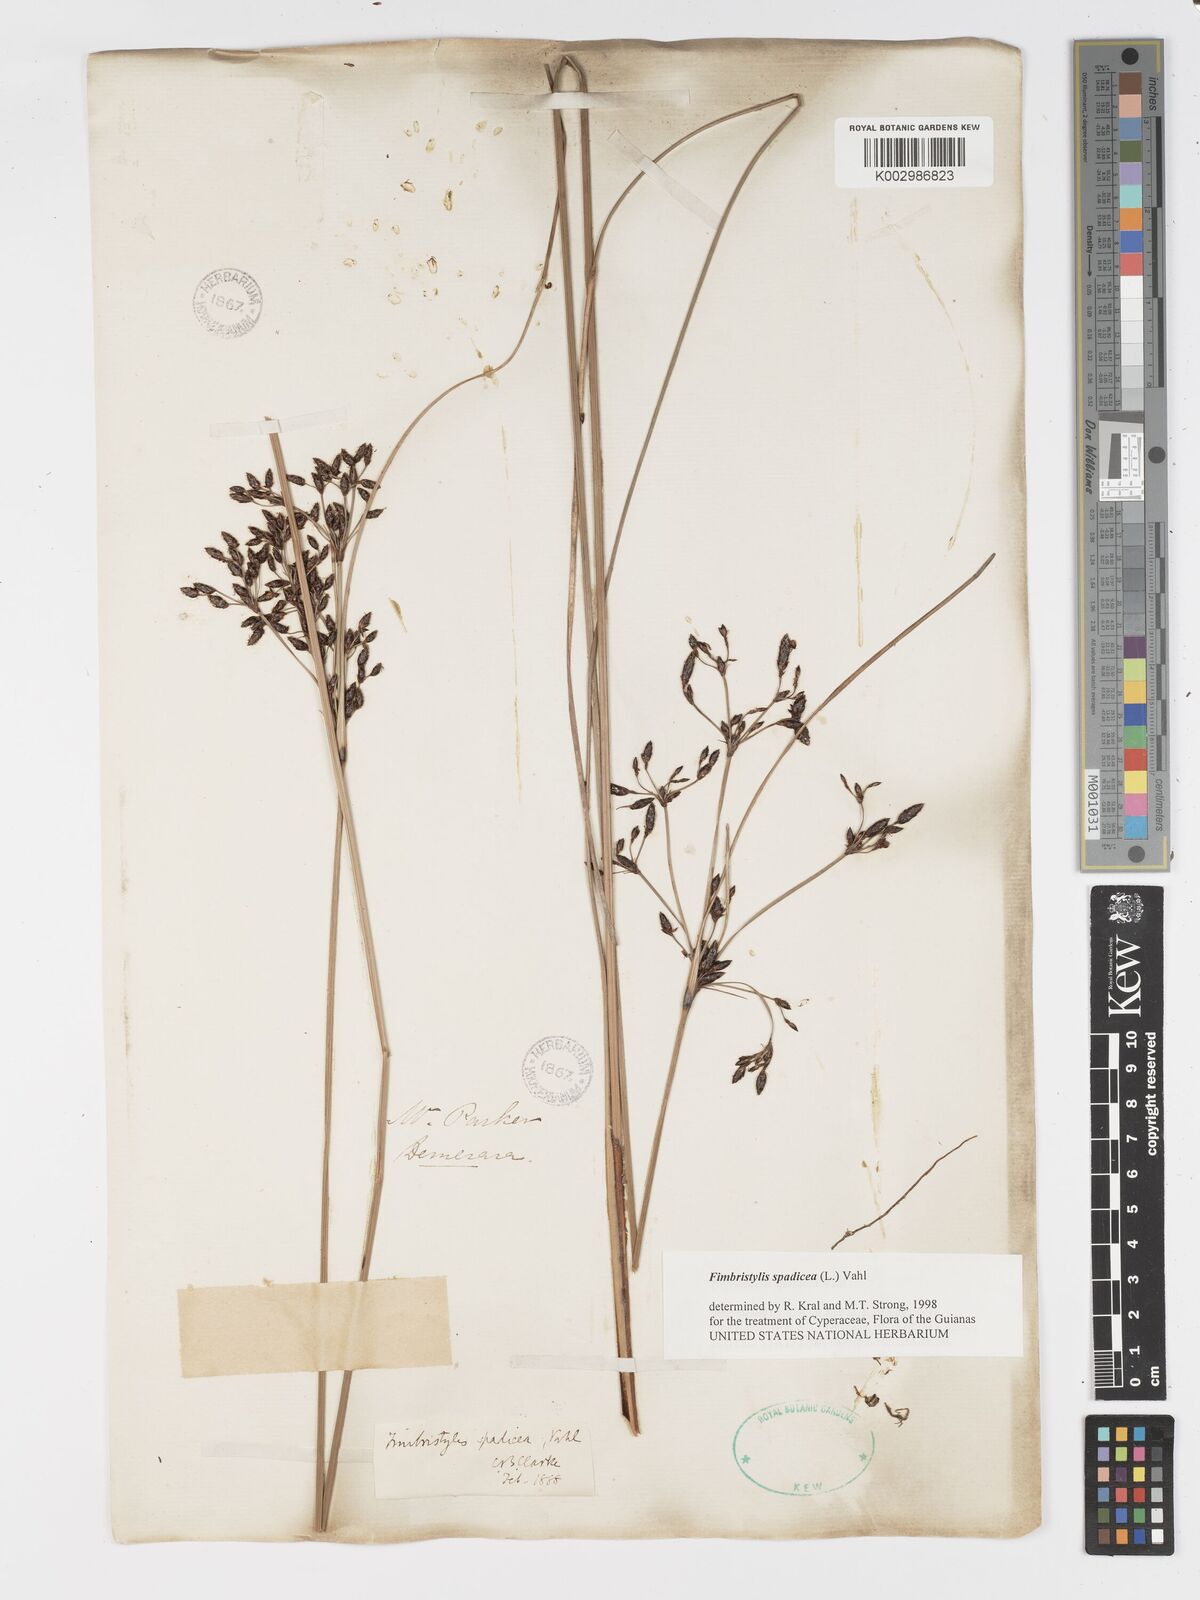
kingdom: Plantae
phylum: Tracheophyta
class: Liliopsida
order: Poales
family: Cyperaceae
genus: Fimbristylis
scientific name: Fimbristylis spadicea
